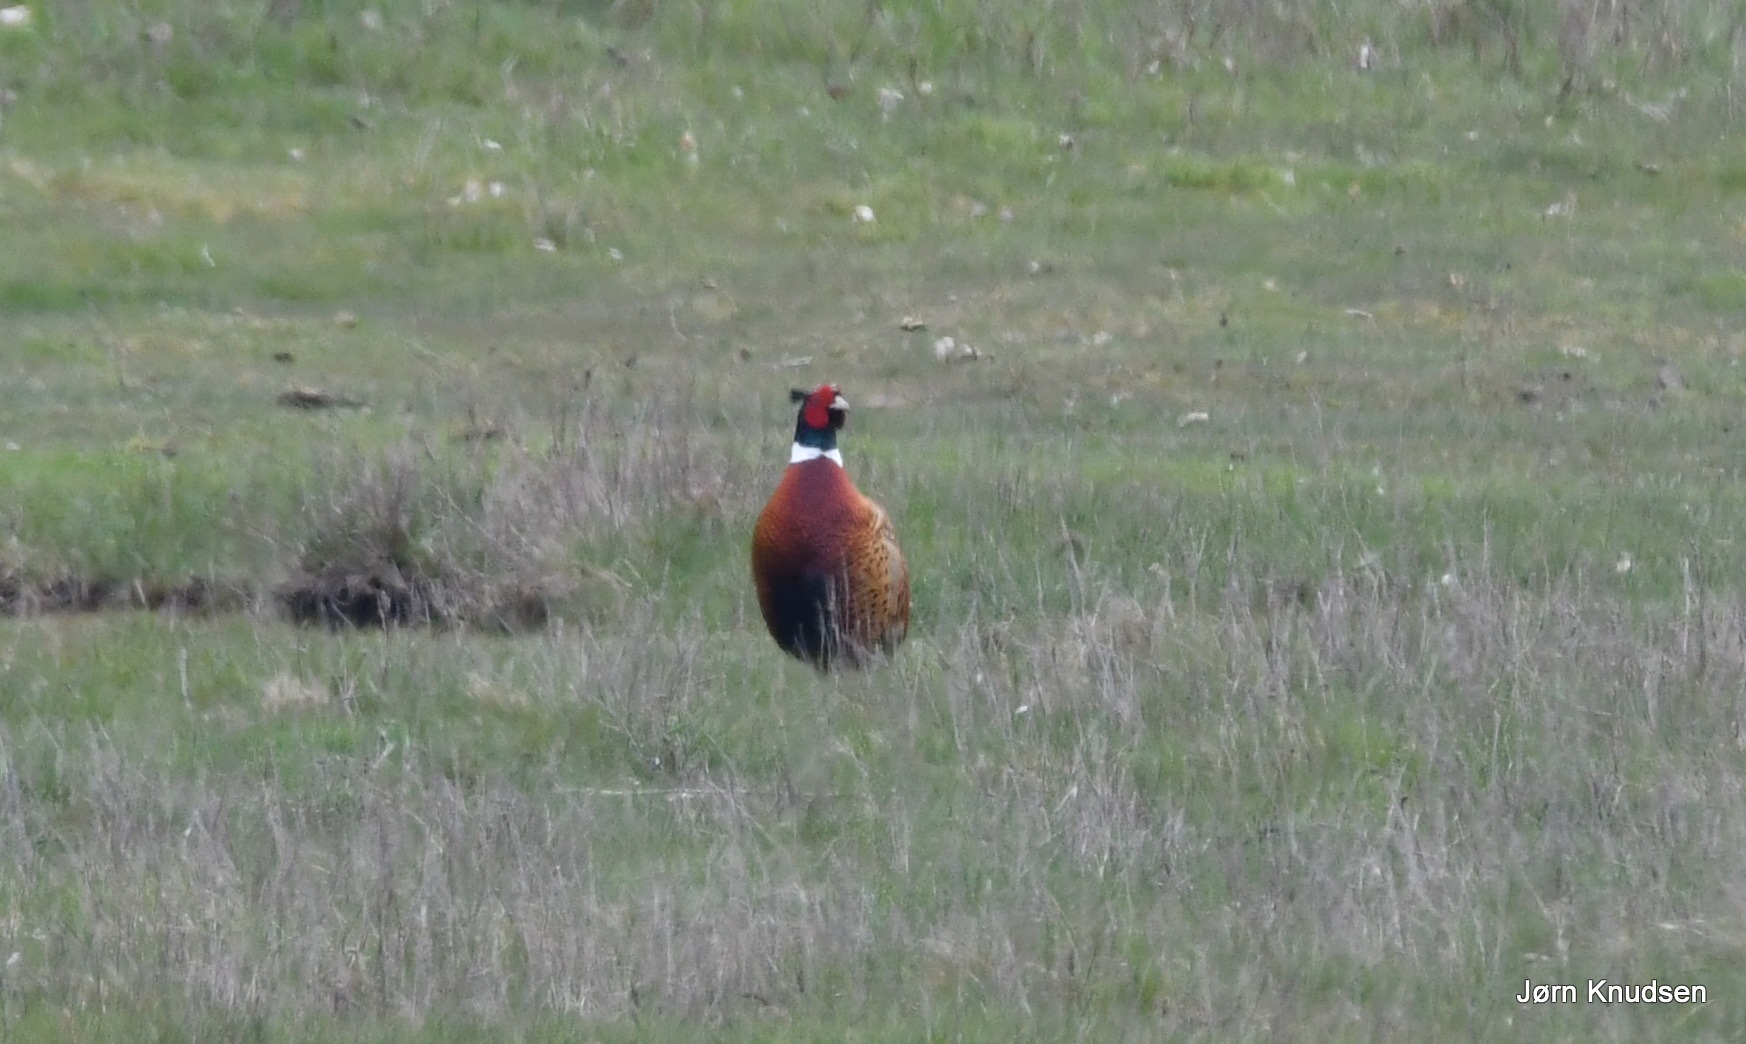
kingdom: Animalia
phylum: Chordata
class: Aves
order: Galliformes
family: Phasianidae
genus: Phasianus
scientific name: Phasianus colchicus
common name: Fasan
